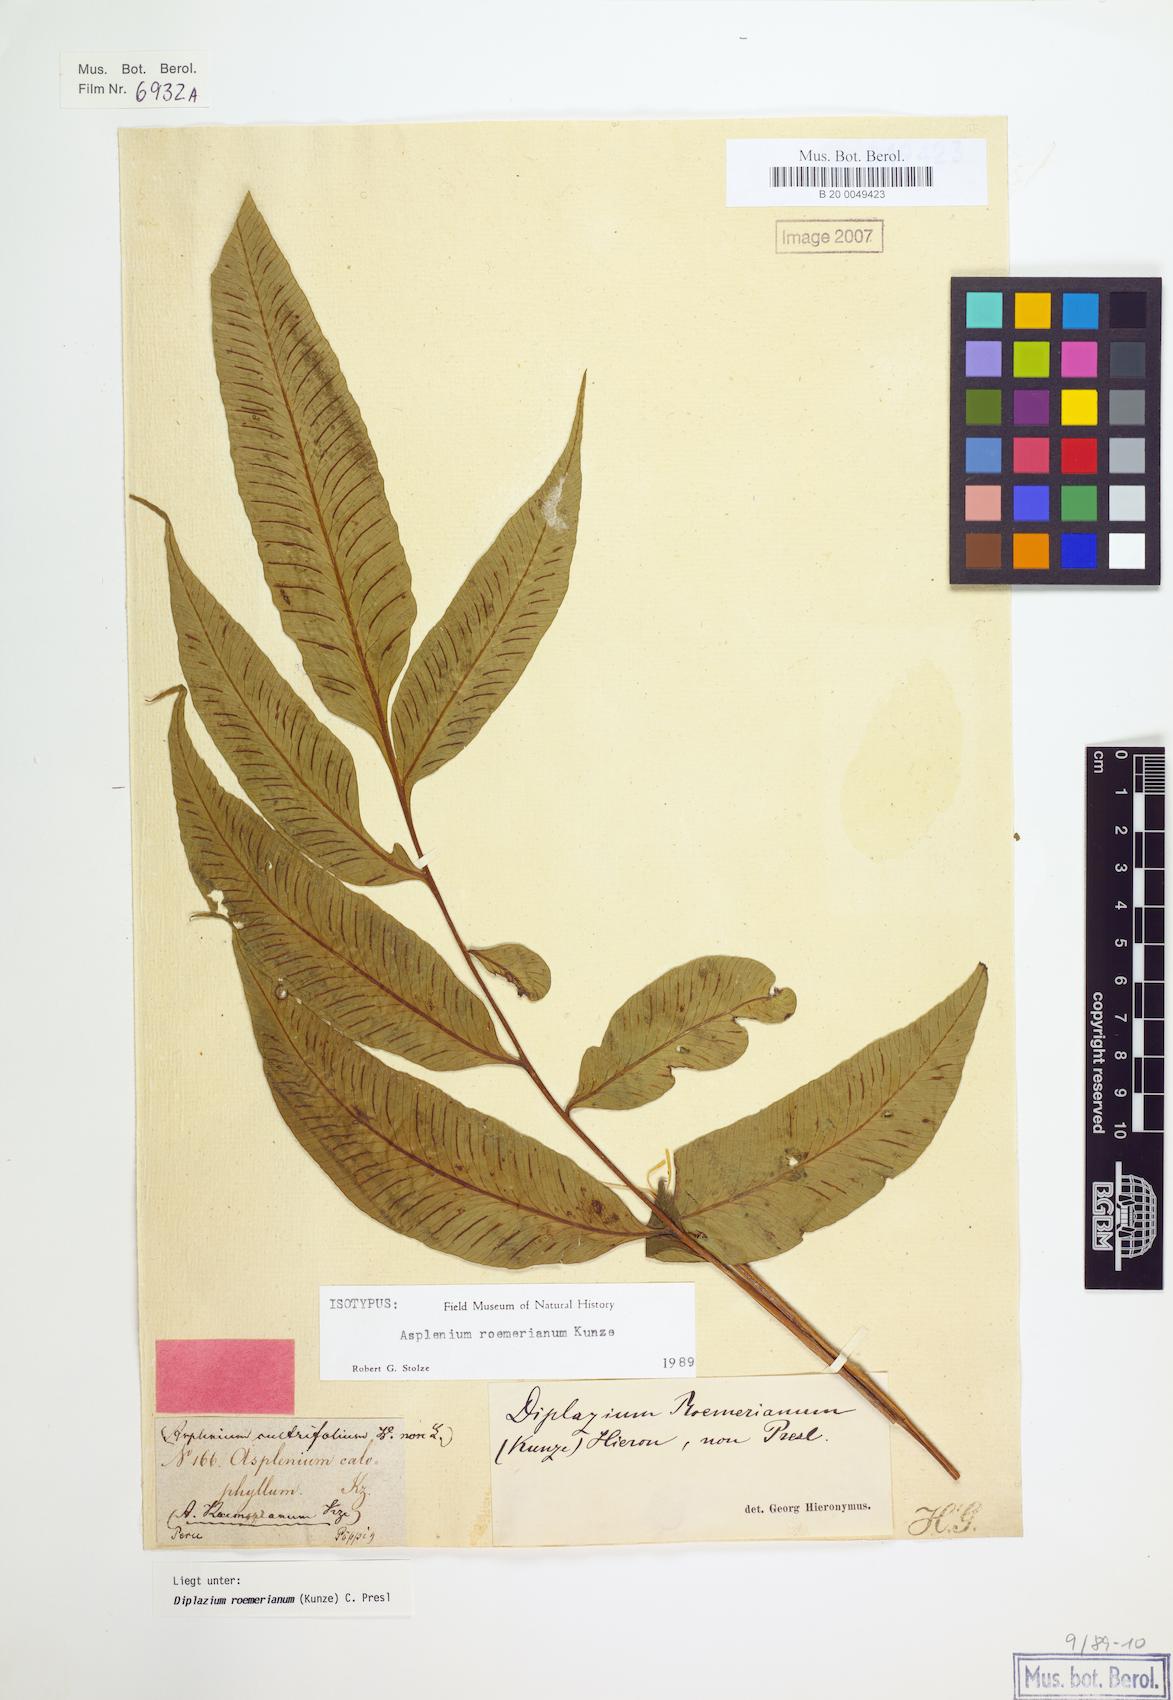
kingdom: Plantae
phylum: Tracheophyta
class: Polypodiopsida
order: Polypodiales
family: Athyriaceae
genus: Diplazium
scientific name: Diplazium roemerianum
